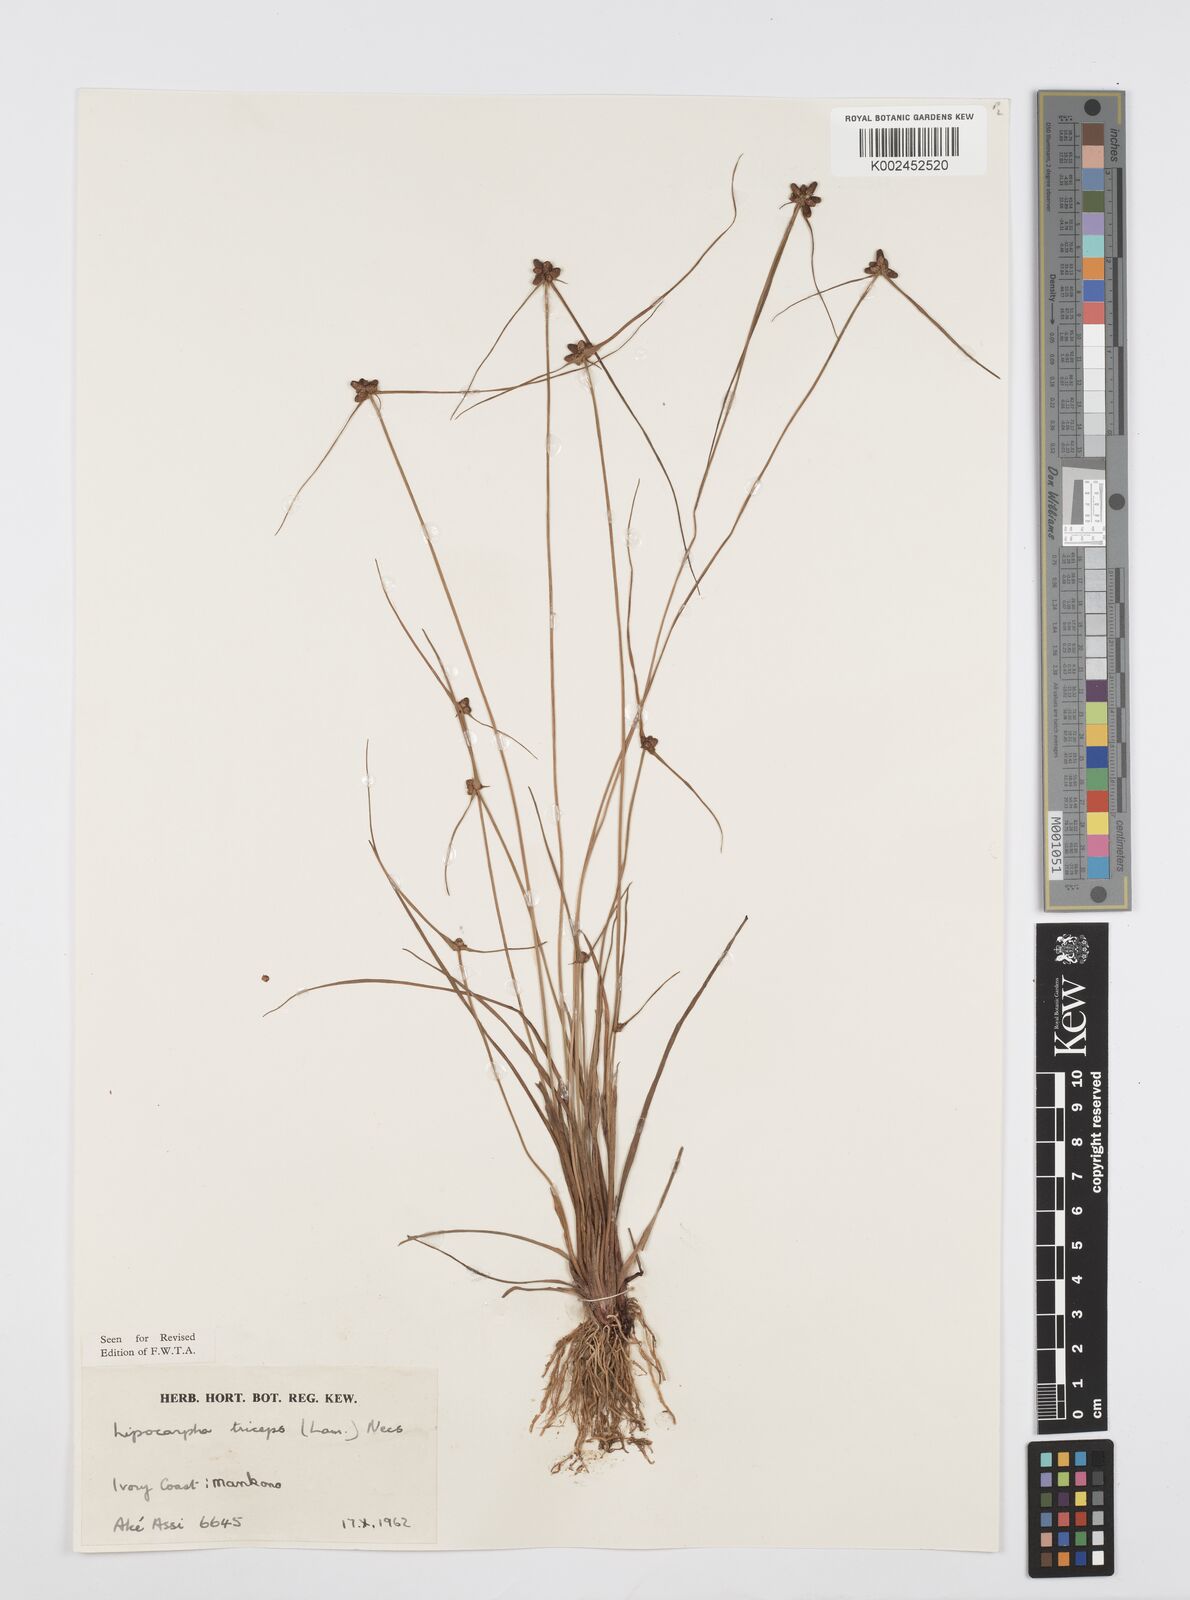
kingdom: Plantae
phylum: Tracheophyta
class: Liliopsida
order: Poales
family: Cyperaceae
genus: Cyperus
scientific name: Cyperus filiformis
